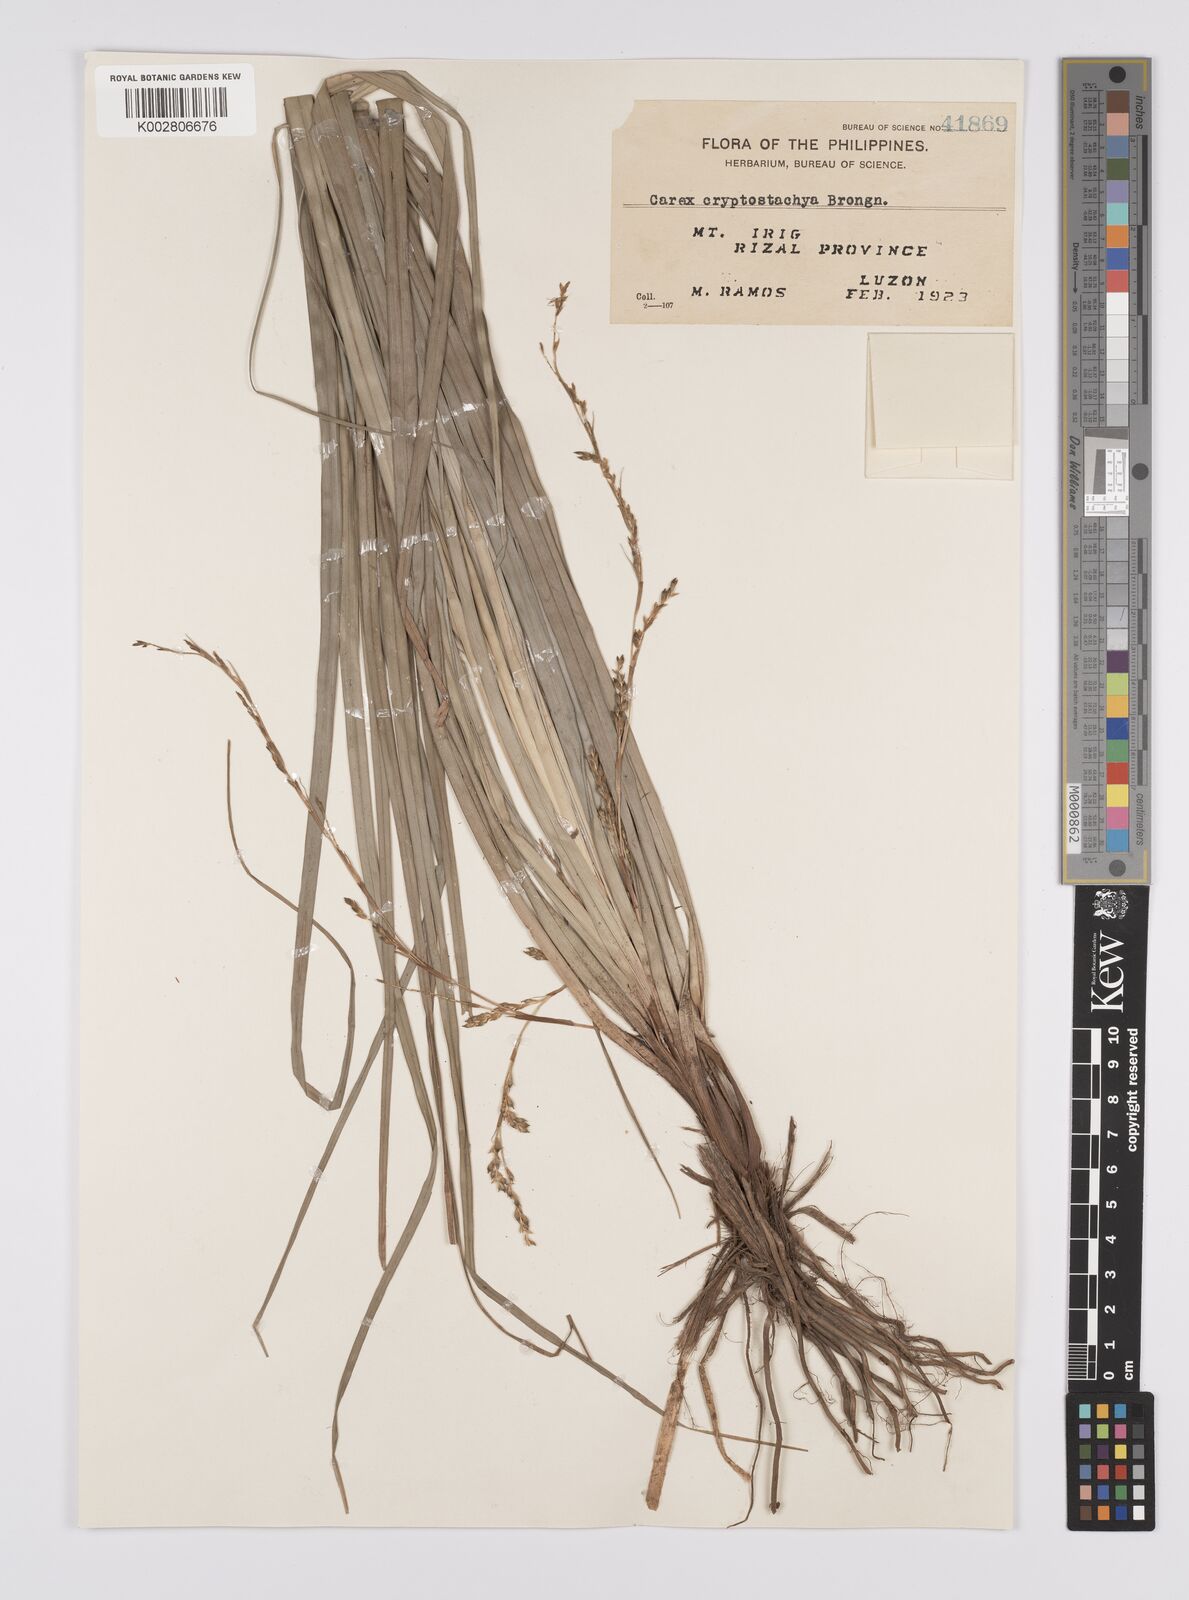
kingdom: Plantae
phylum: Tracheophyta
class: Liliopsida
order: Poales
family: Cyperaceae
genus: Carex
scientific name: Carex cryptostachys
